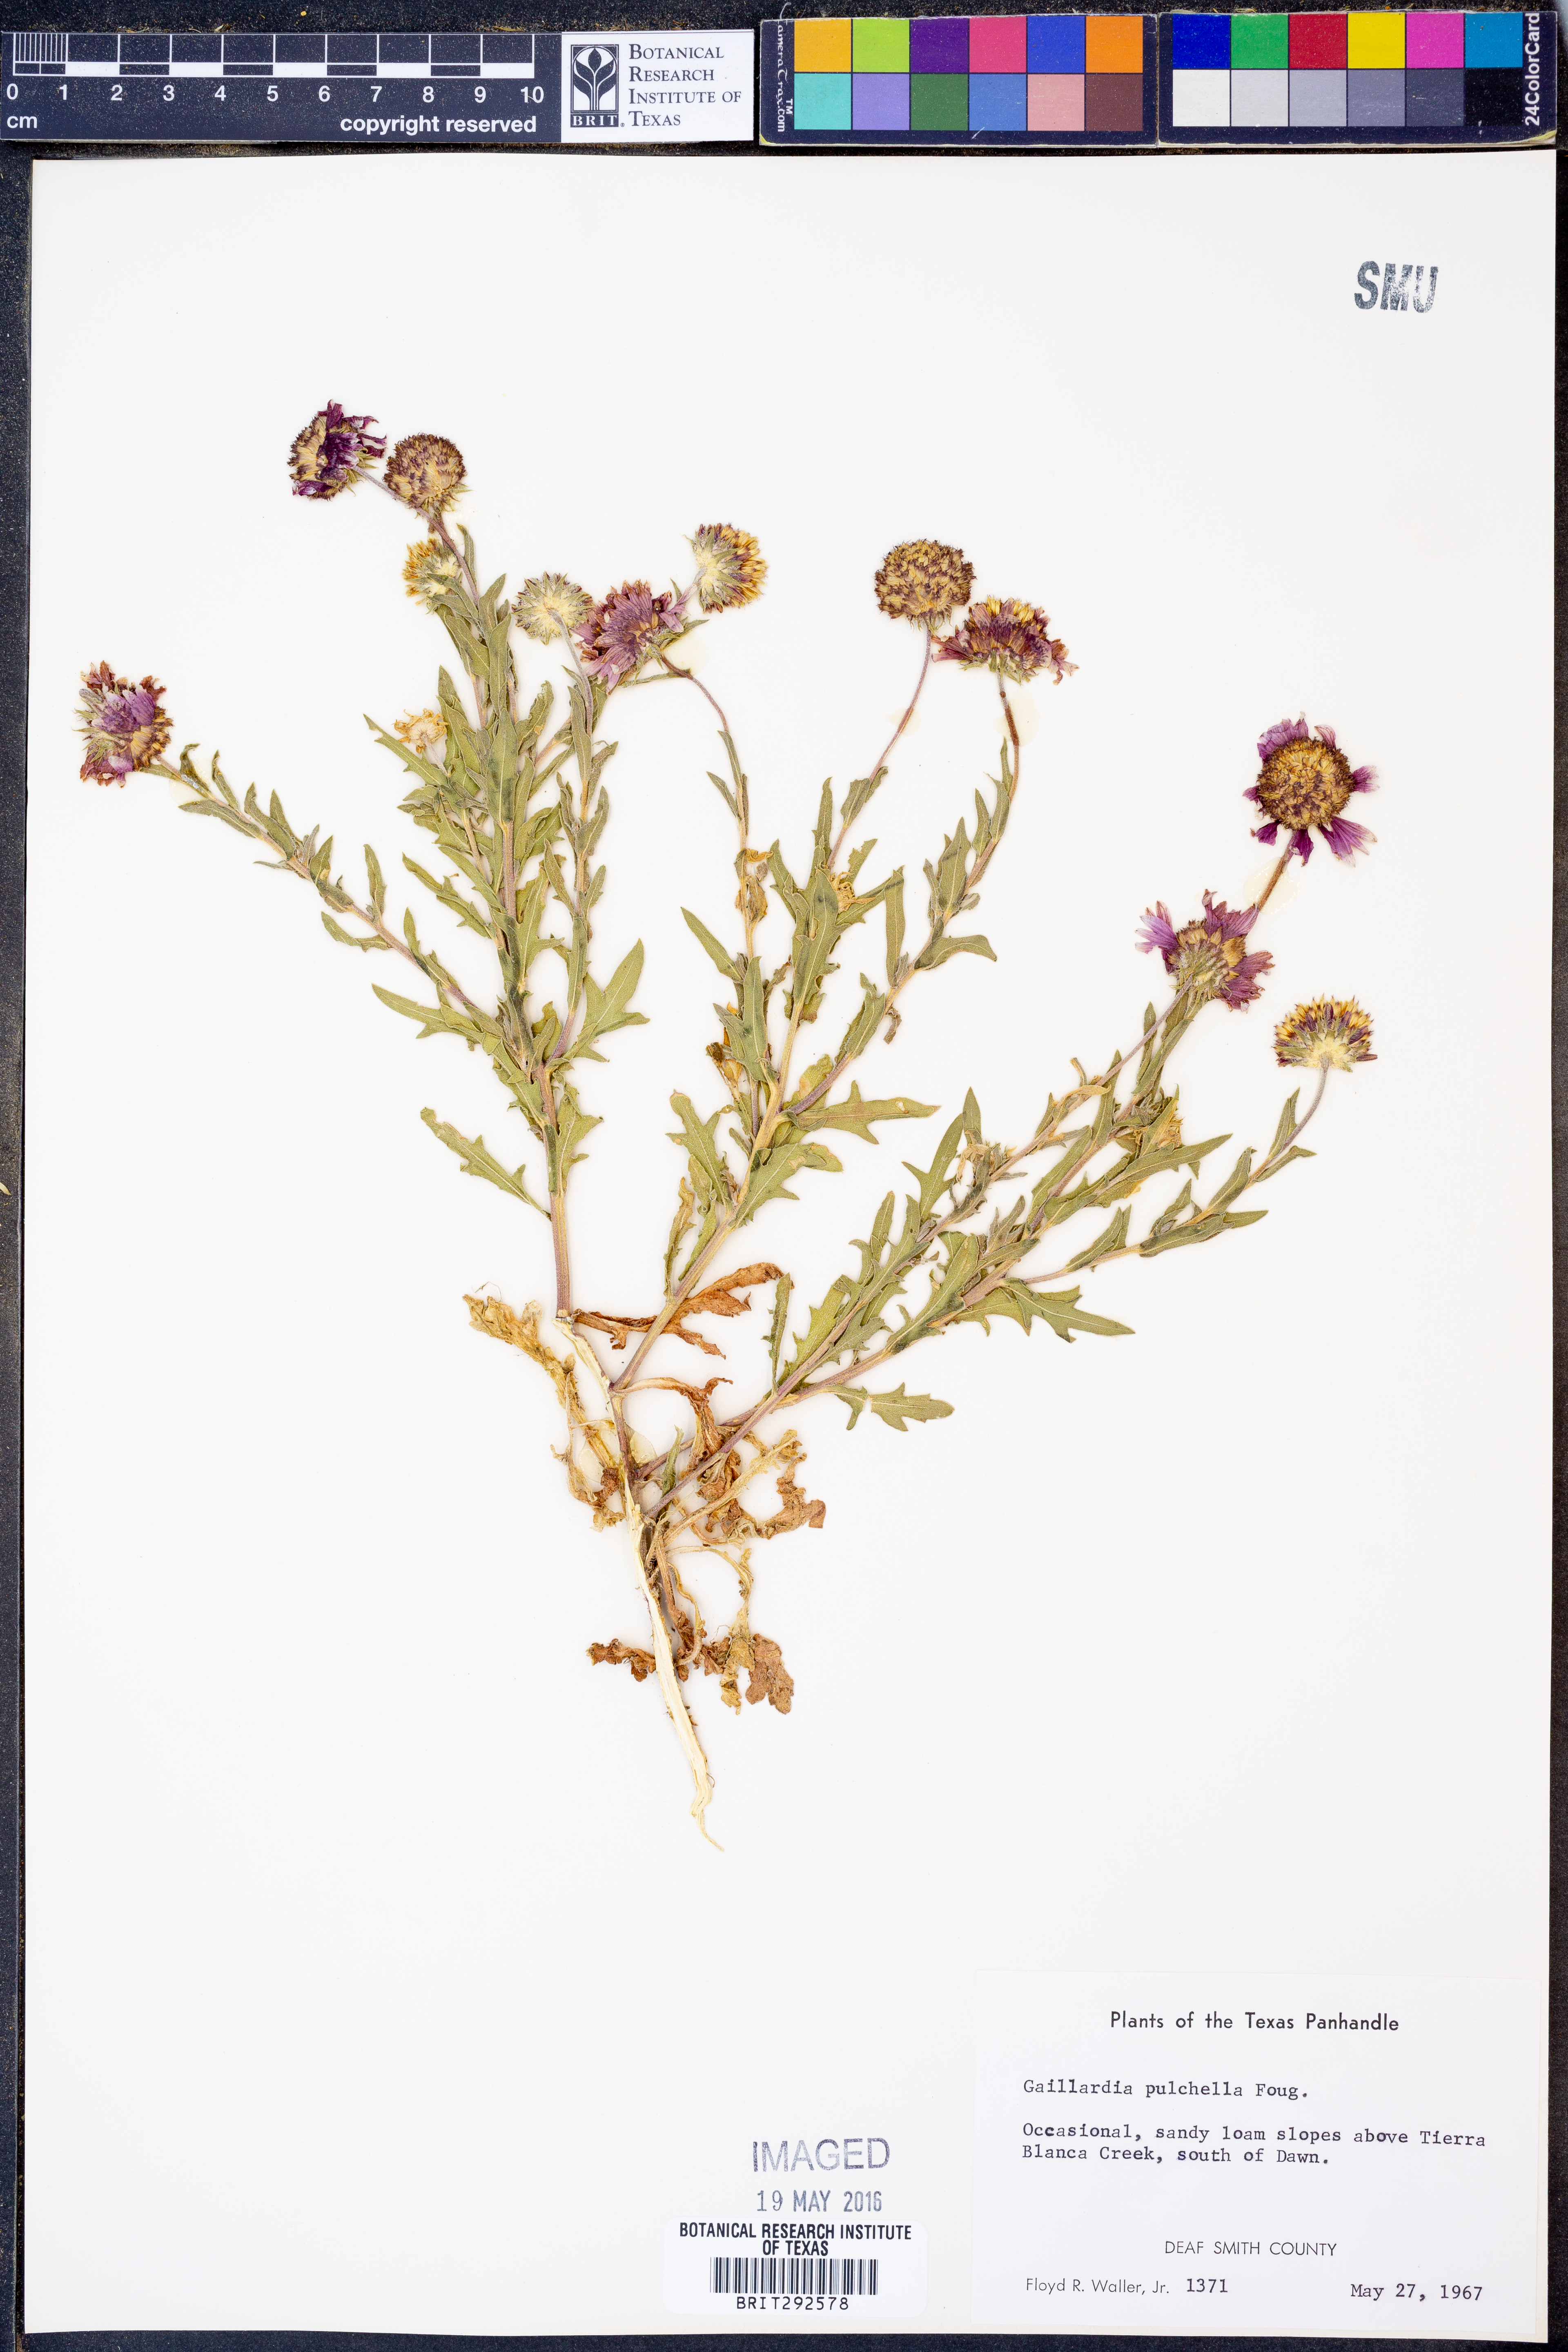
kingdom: Plantae
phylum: Tracheophyta
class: Magnoliopsida
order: Asterales
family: Asteraceae
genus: Gaillardia
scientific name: Gaillardia pulchella
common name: Firewheel
